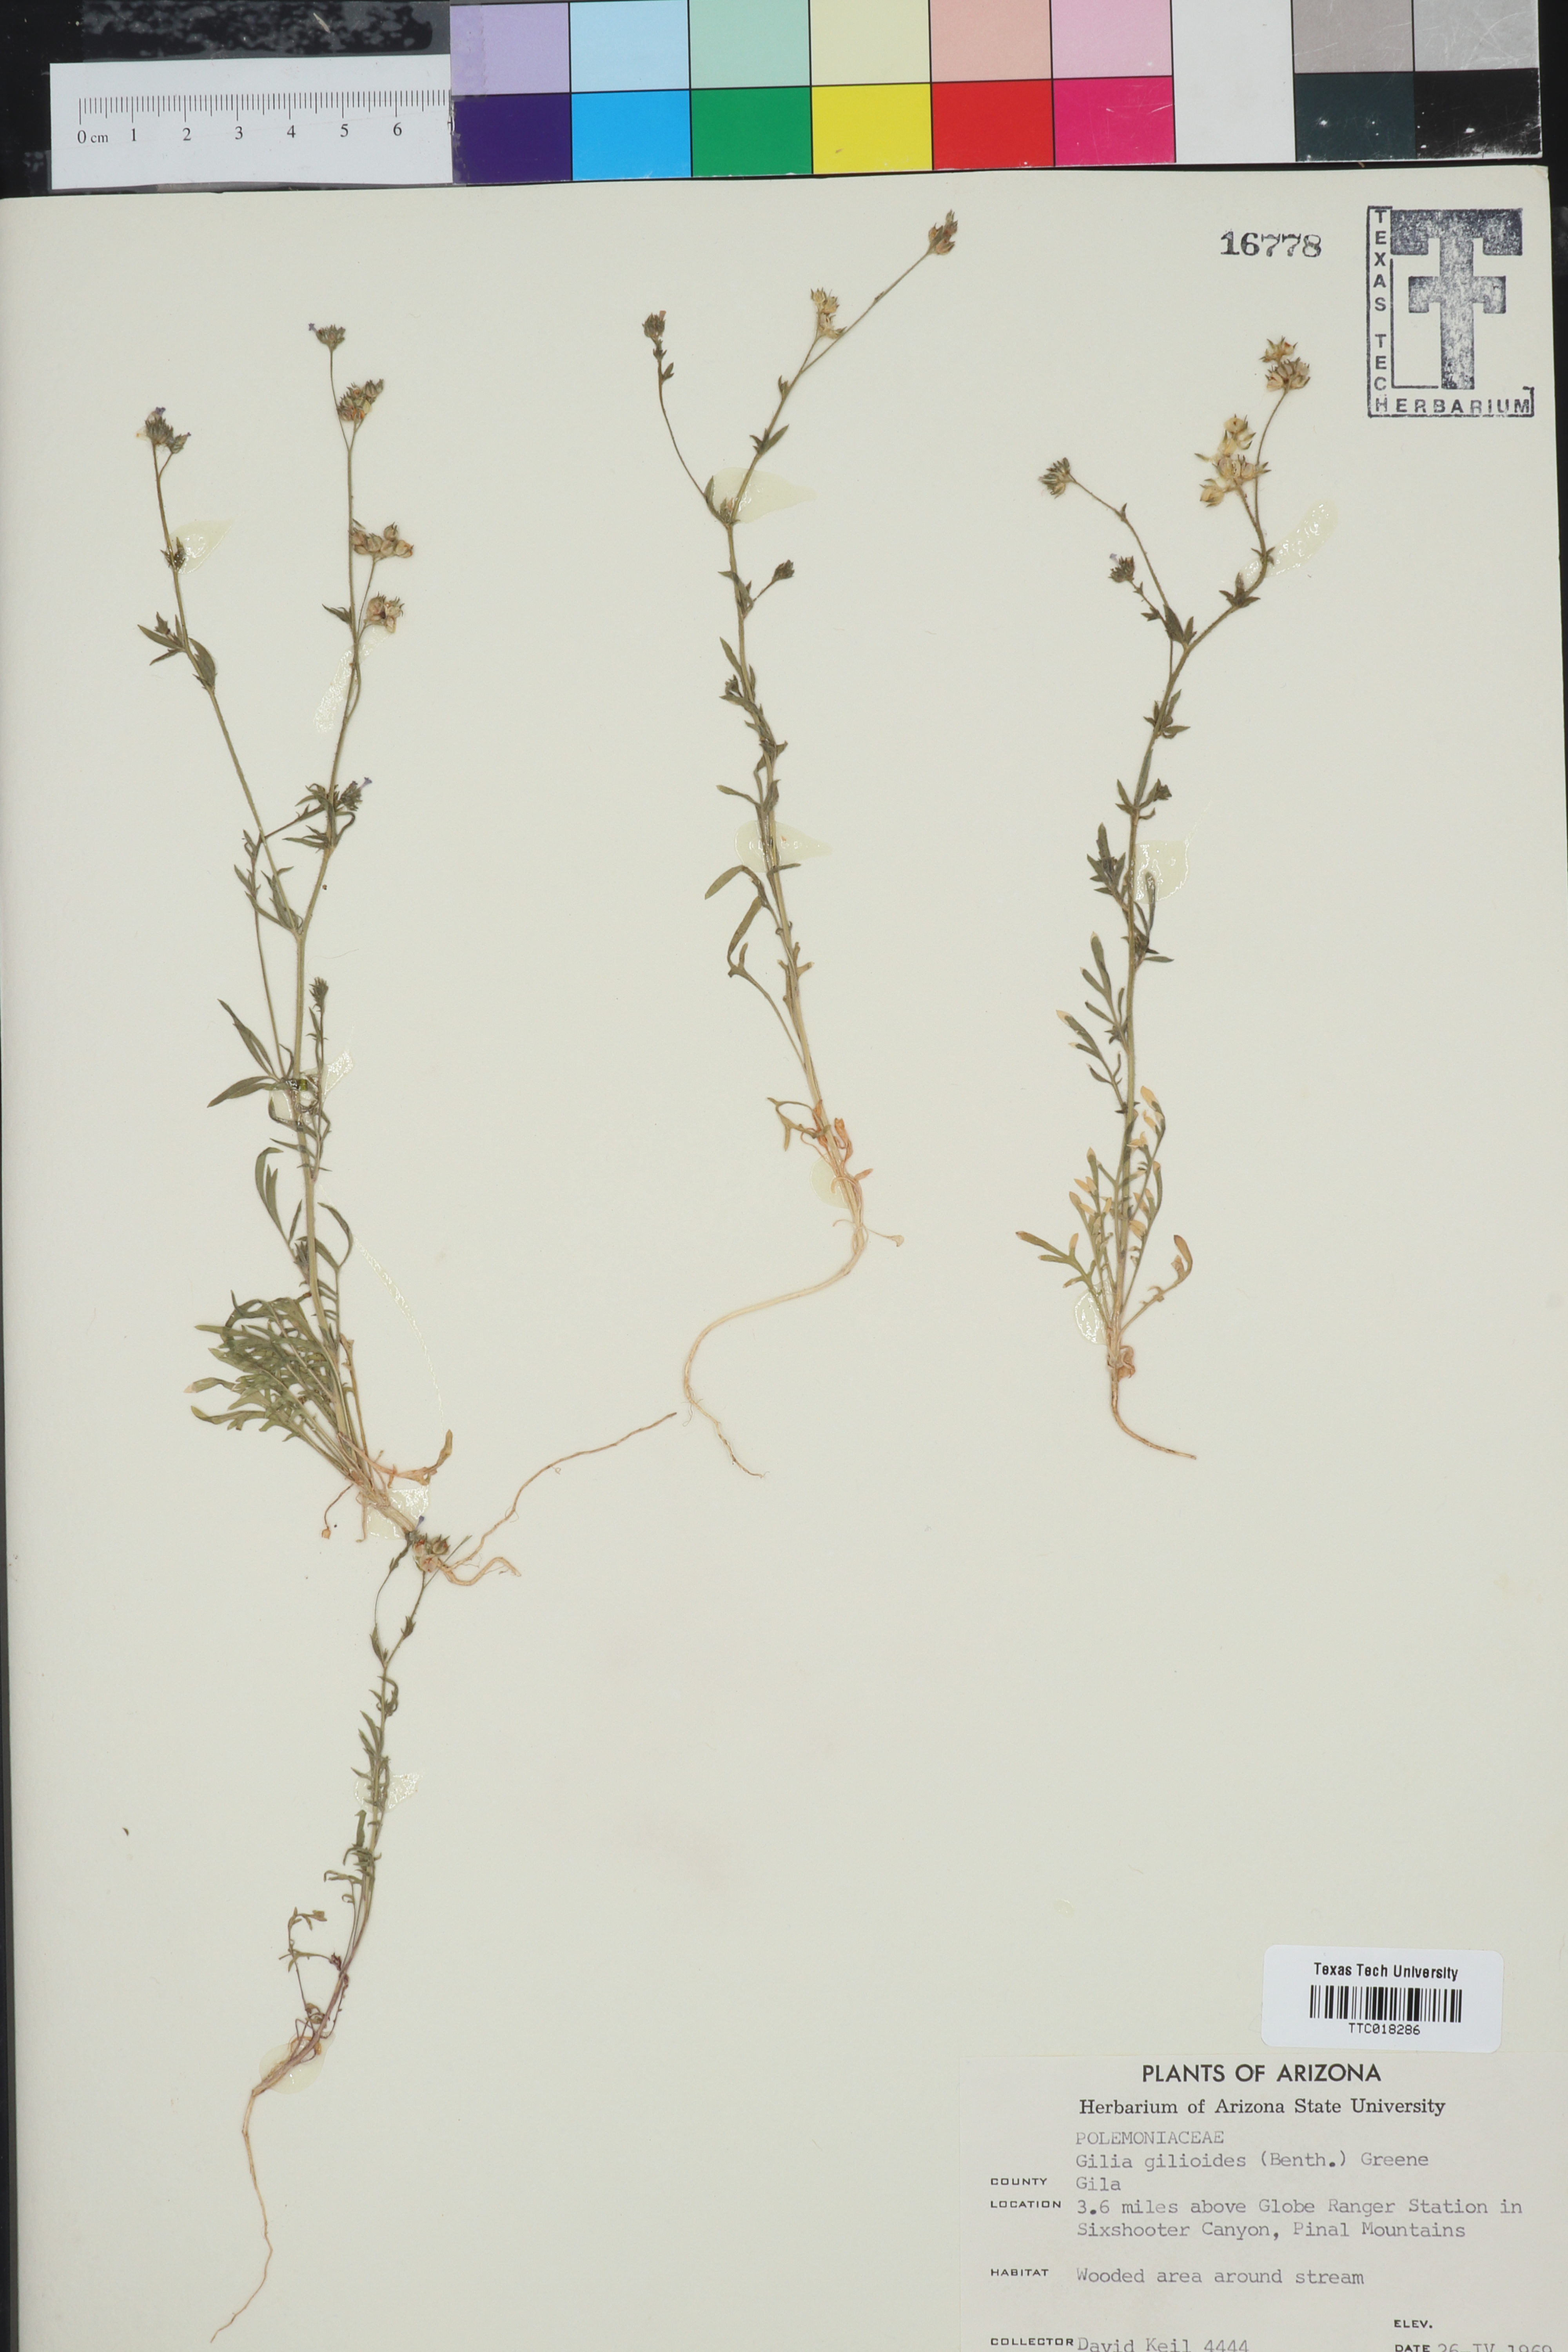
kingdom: Plantae
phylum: Tracheophyta
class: Magnoliopsida
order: Ericales
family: Polemoniaceae
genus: Allophyllum
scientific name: Allophyllum gilioides
